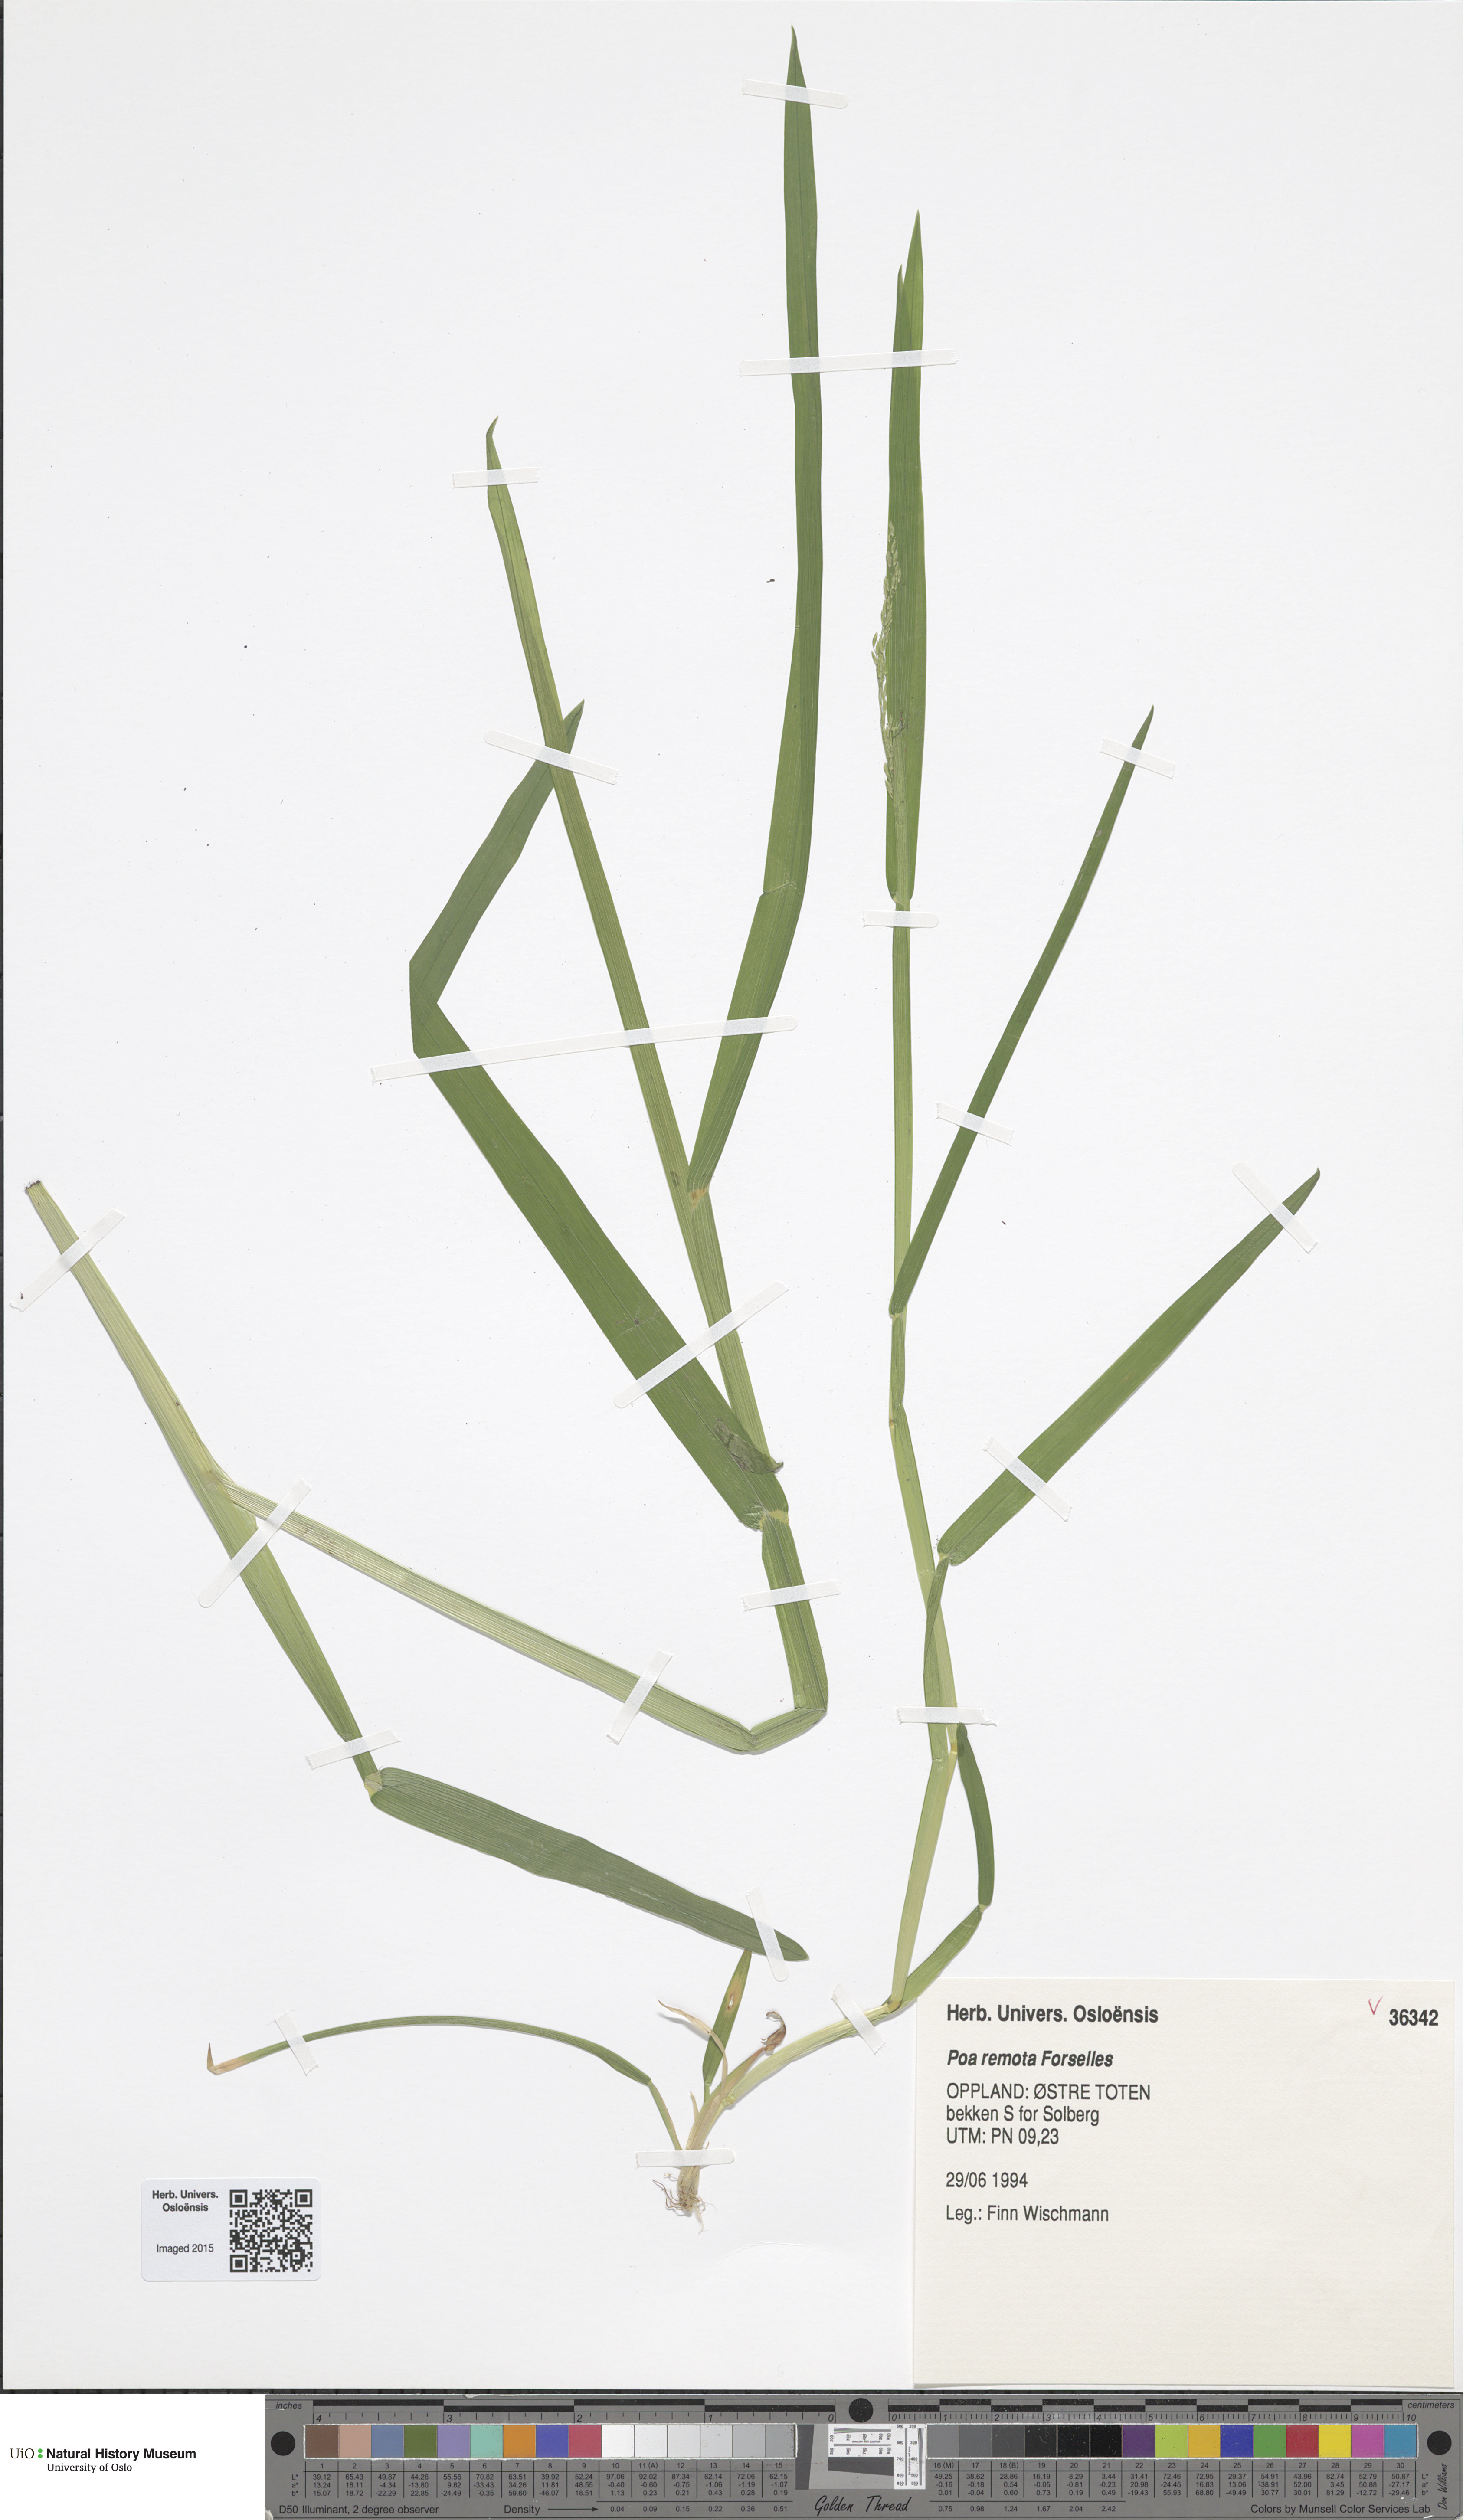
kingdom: Plantae
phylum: Tracheophyta
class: Liliopsida
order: Poales
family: Poaceae
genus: Poa
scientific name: Poa remota
